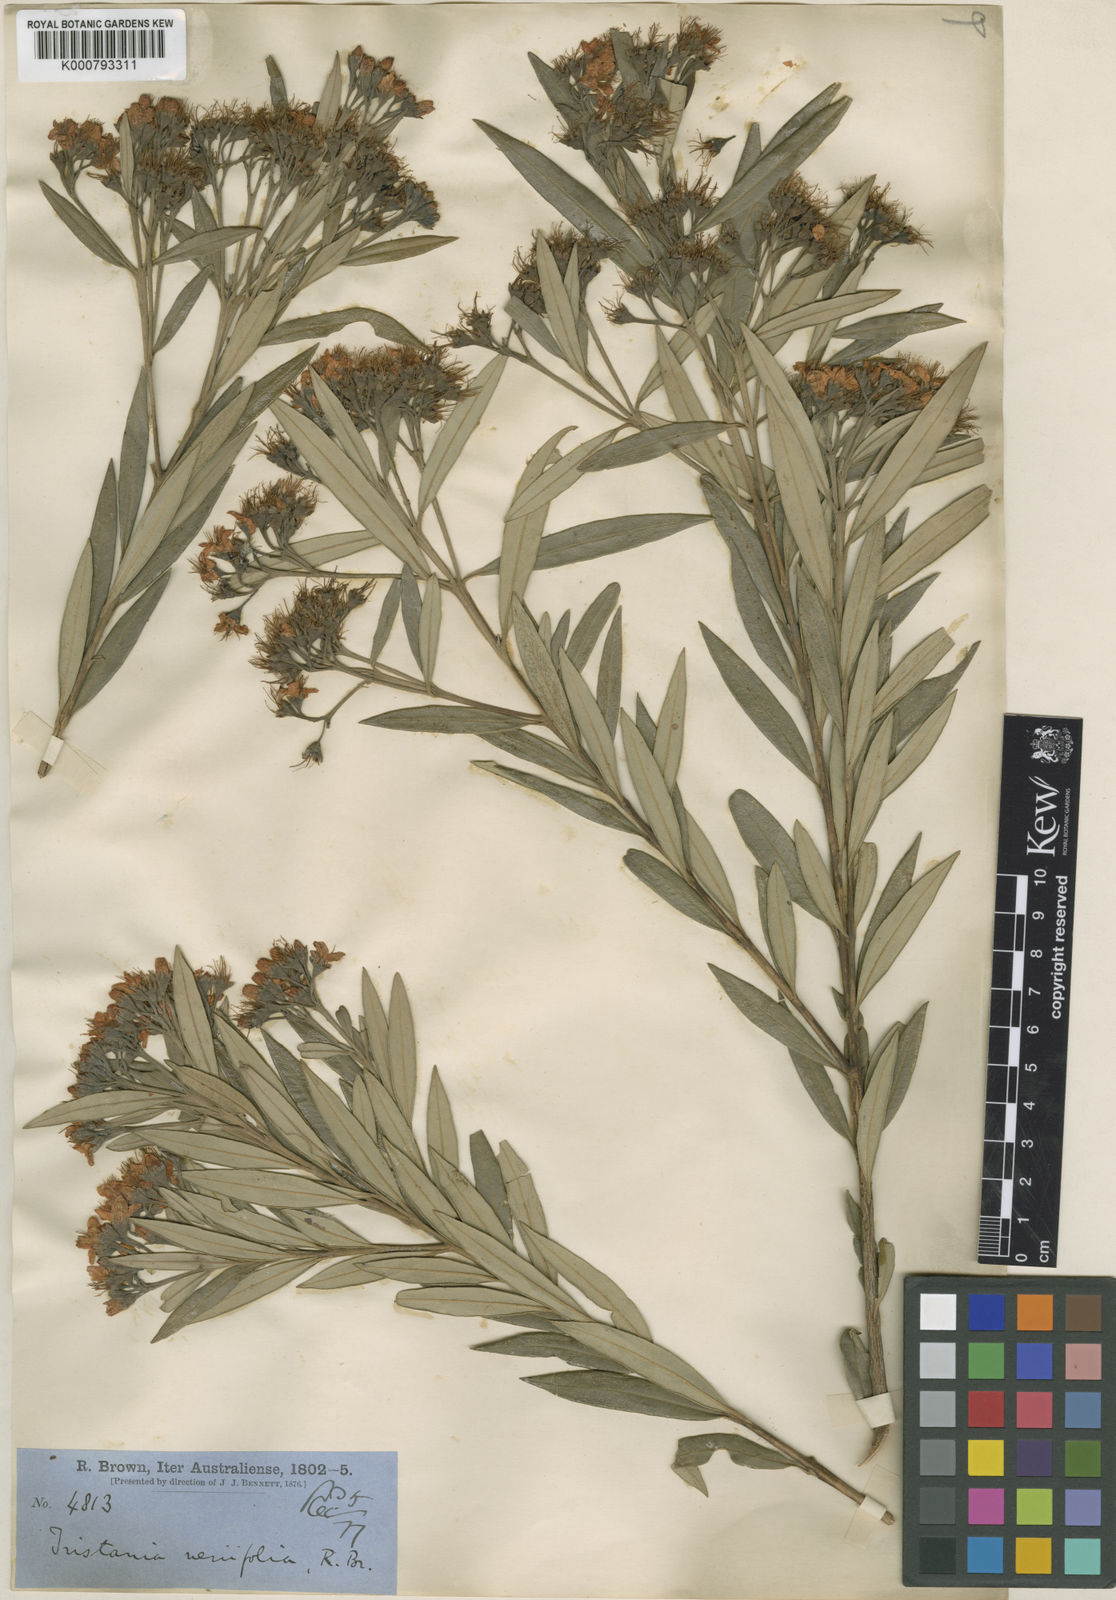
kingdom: Plantae
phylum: Tracheophyta
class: Magnoliopsida
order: Myrtales
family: Myrtaceae
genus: Lophostemon
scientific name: Lophostemon
